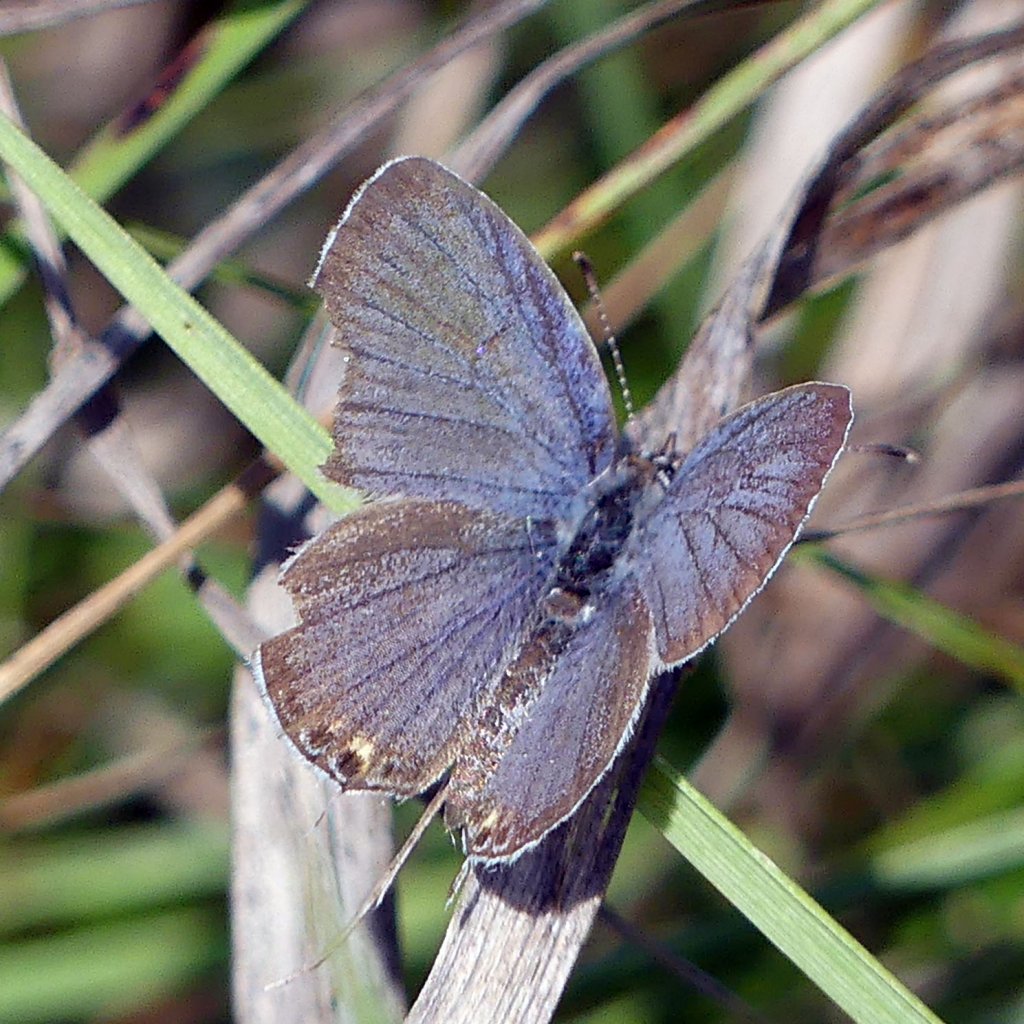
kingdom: Animalia
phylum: Arthropoda
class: Insecta
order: Lepidoptera
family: Lycaenidae
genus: Elkalyce
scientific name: Elkalyce comyntas
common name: Eastern Tailed-Blue
